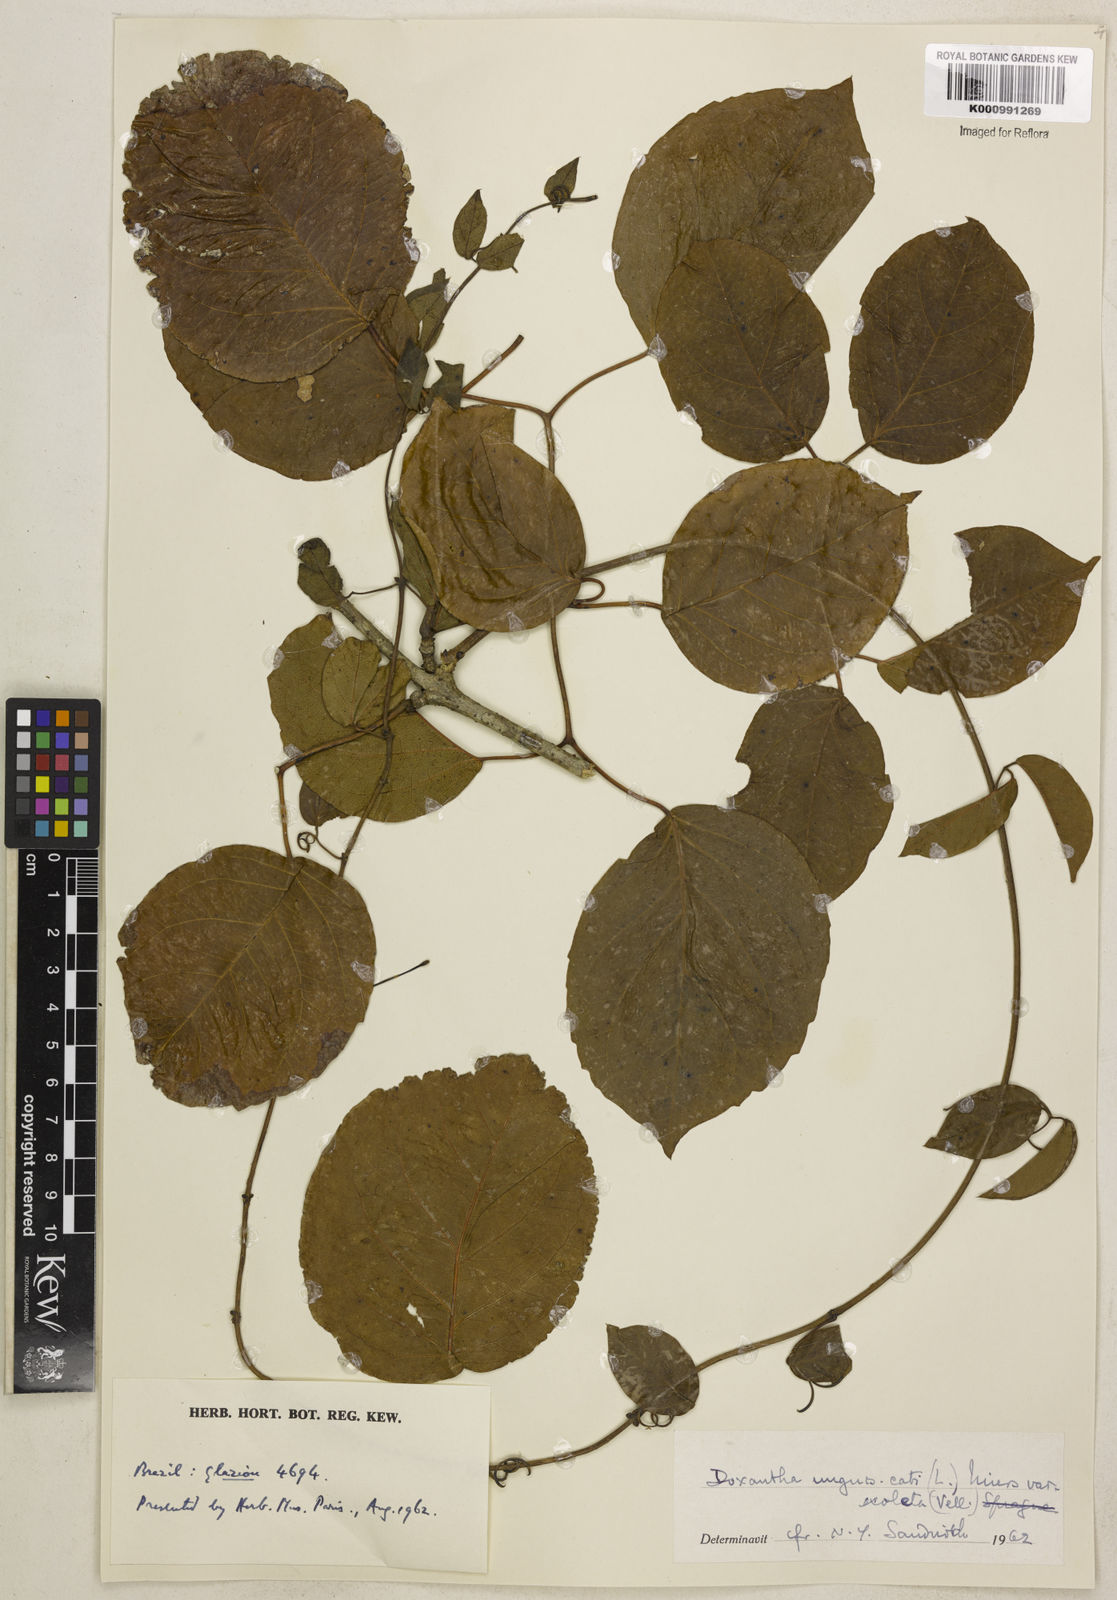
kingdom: Plantae
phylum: Tracheophyta
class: Magnoliopsida
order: Lamiales
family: Bignoniaceae
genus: Dolichandra
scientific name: Dolichandra unguis-cati
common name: Catclaw vine
